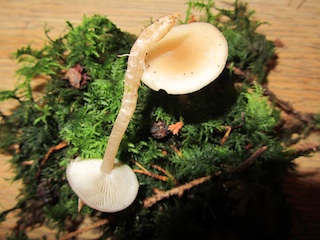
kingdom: Fungi
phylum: Basidiomycota
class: Agaricomycetes
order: Agaricales
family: Tricholomataceae
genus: Clitocybe
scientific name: Clitocybe fragrans
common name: vellugtende tragthat
